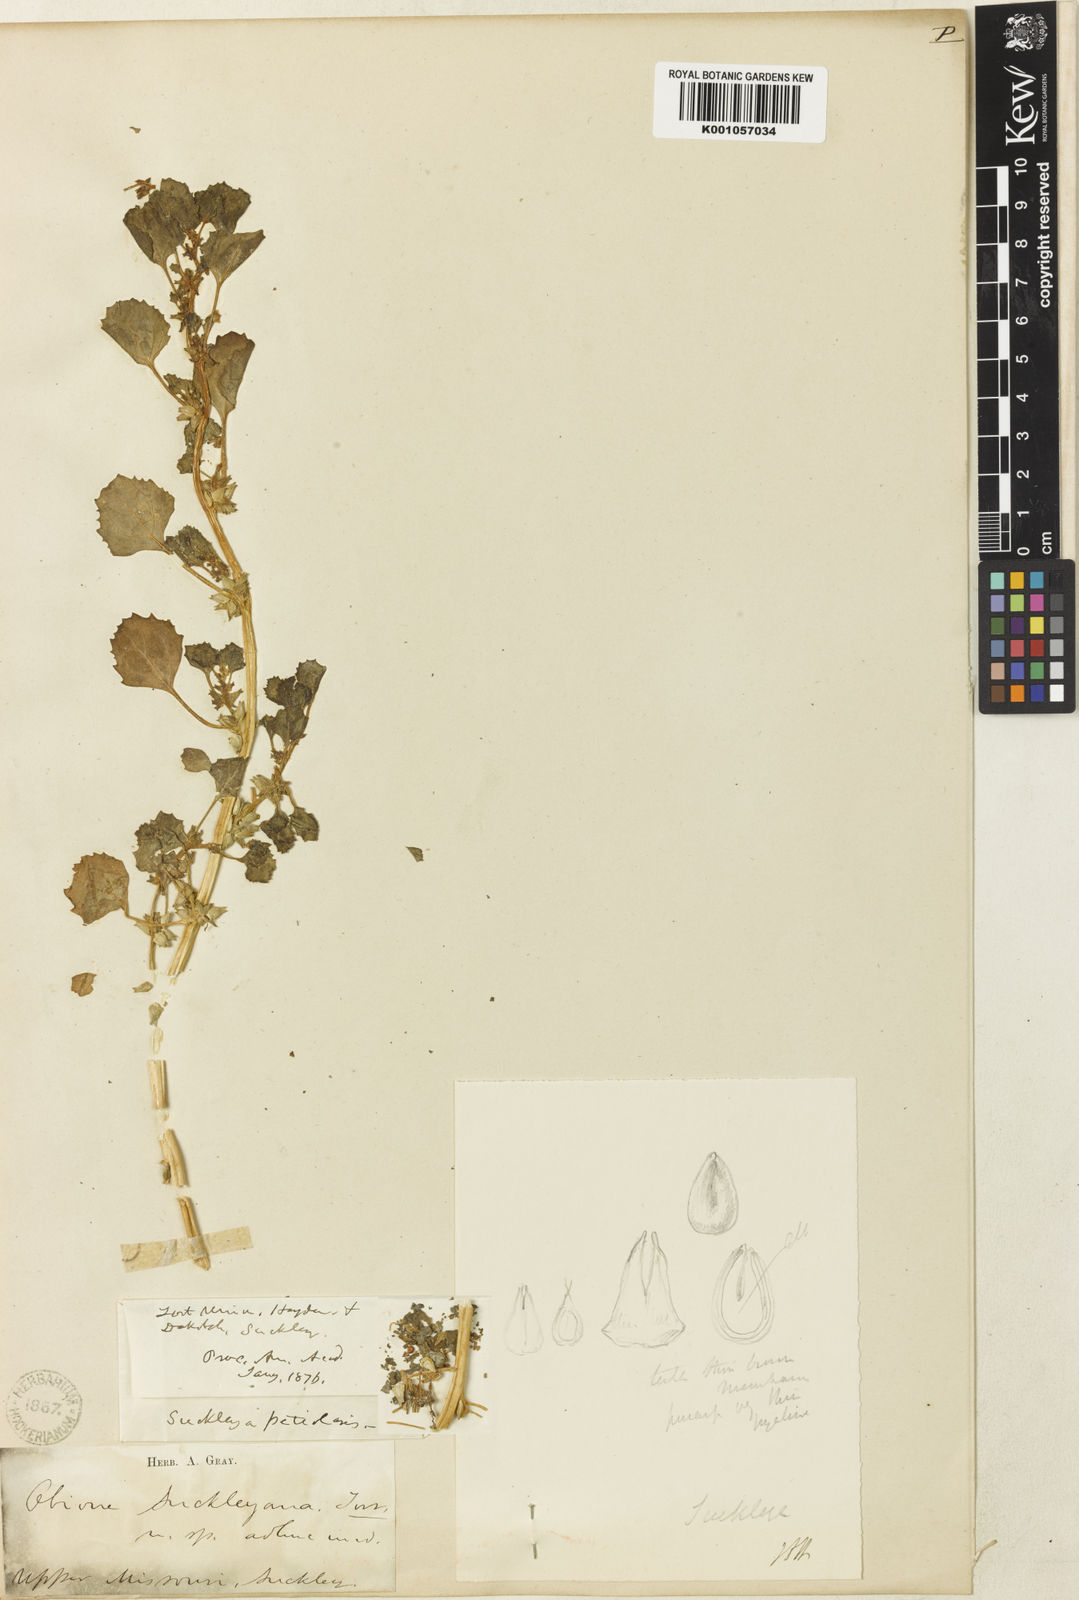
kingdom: Plantae
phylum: Tracheophyta
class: Magnoliopsida
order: Caryophyllales
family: Amaranthaceae
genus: Suckleya
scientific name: Suckleya suckleyana
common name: Poison suckleya
